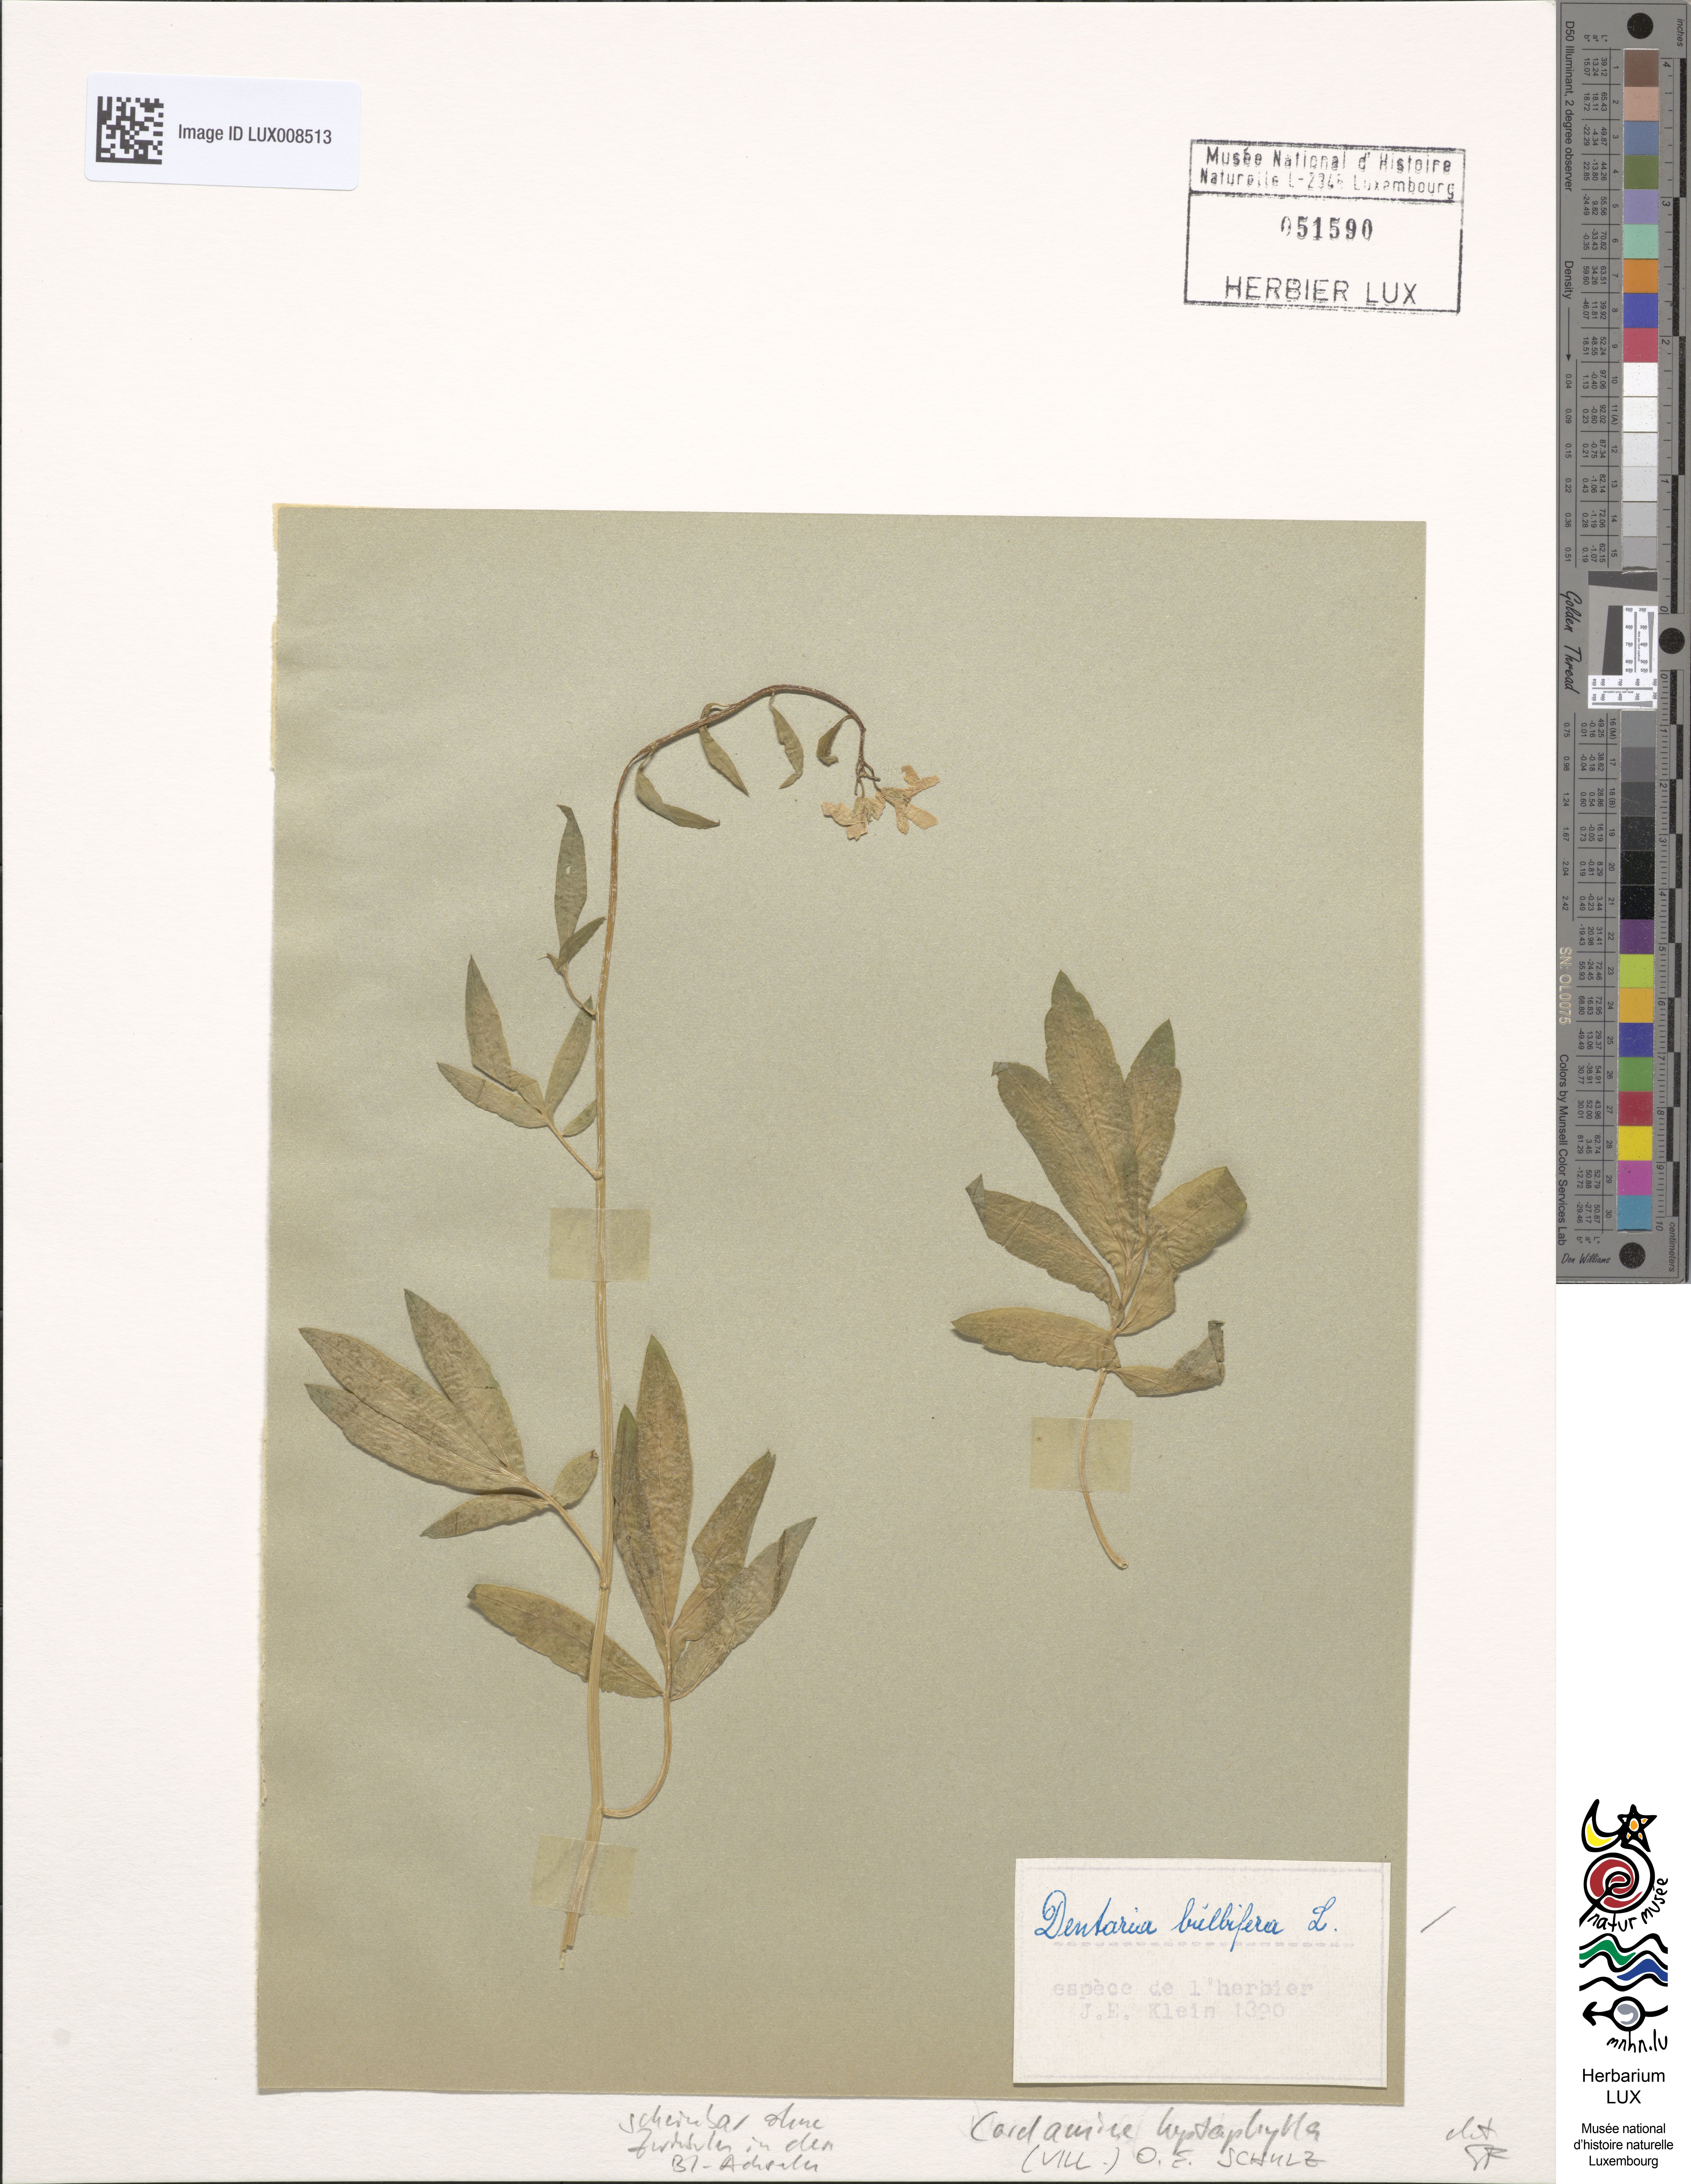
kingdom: Plantae
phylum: Tracheophyta
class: Magnoliopsida
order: Brassicales
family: Brassicaceae
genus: Cardamine
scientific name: Cardamine heptaphylla
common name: Pinnate coralroot
